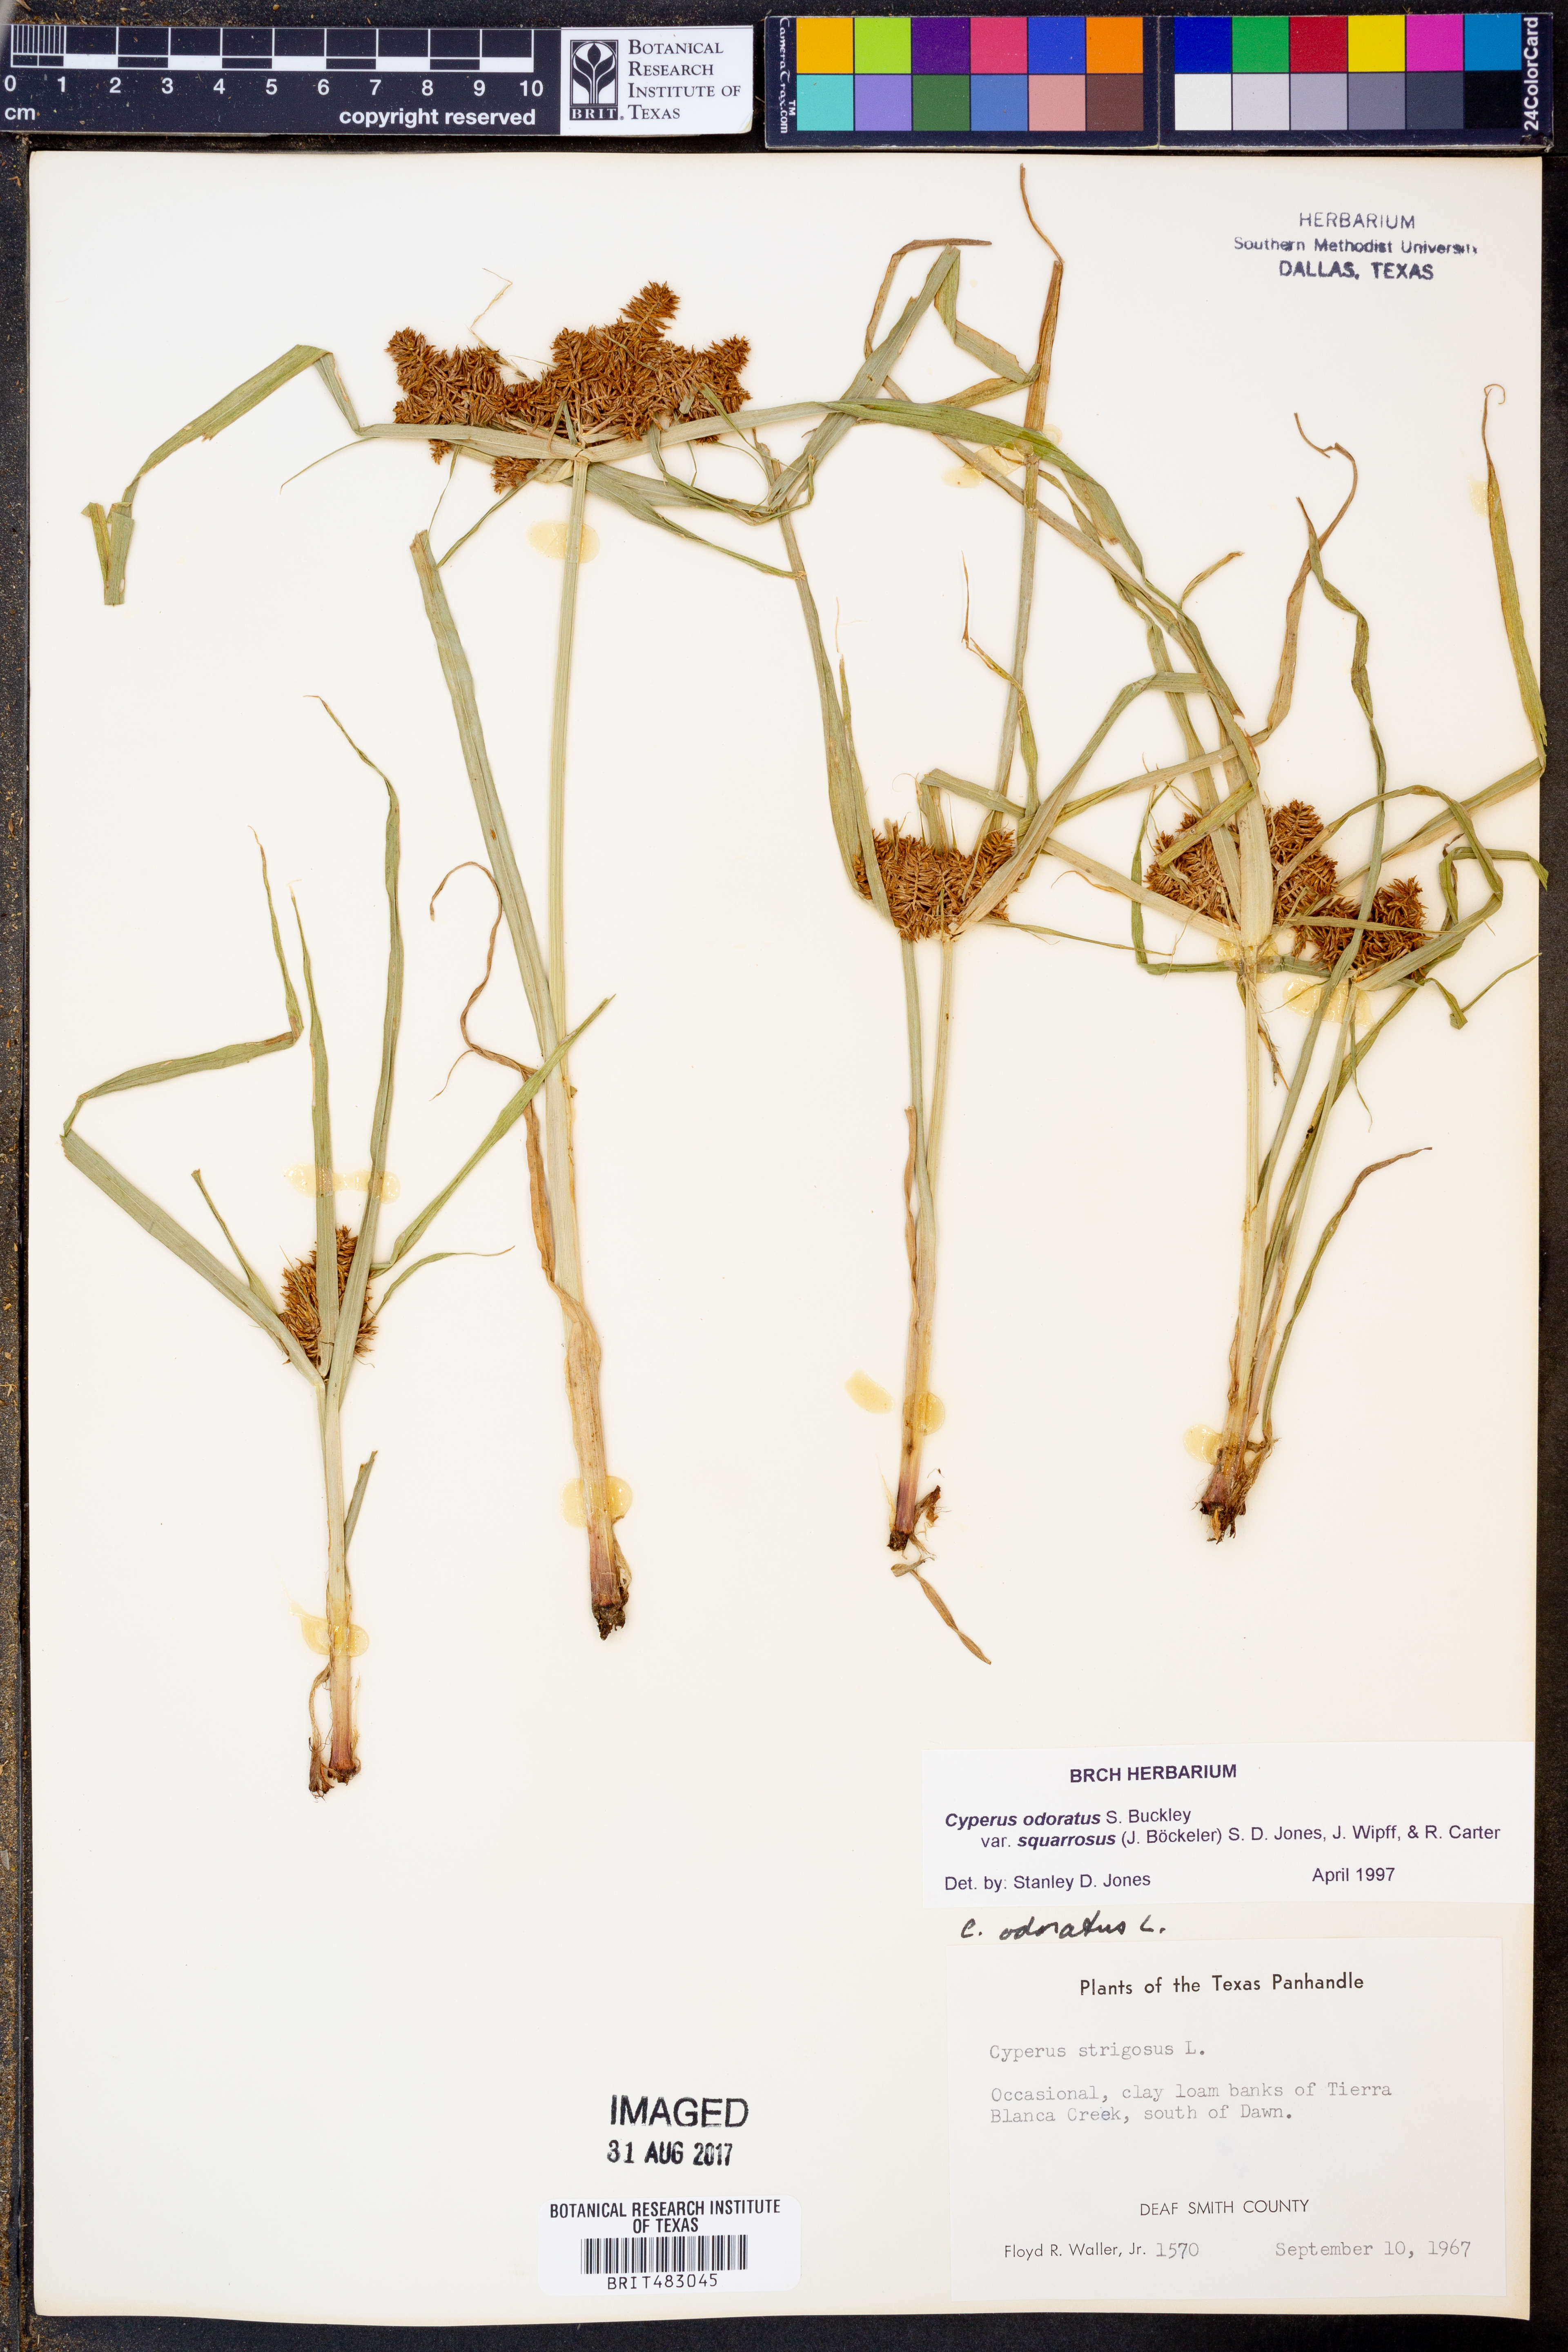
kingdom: Plantae
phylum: Tracheophyta
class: Liliopsida
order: Poales
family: Cyperaceae
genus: Cyperus
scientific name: Cyperus odoratus
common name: Fragrant flatsedge
